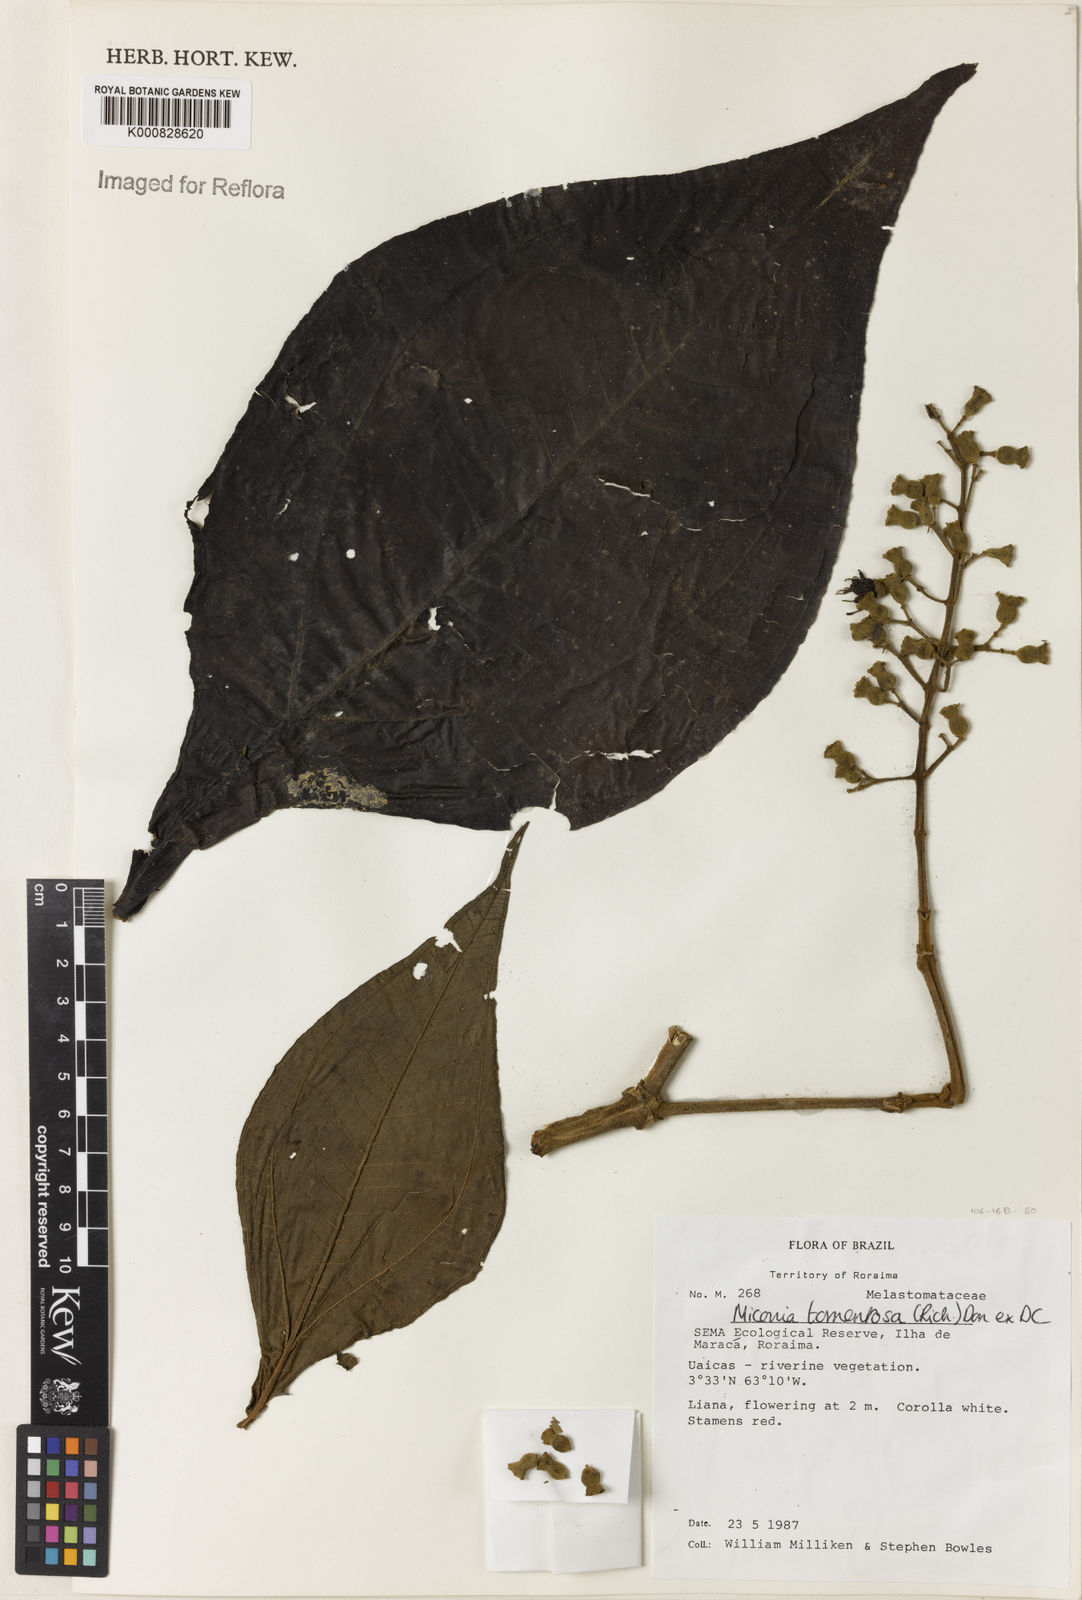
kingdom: Plantae
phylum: Tracheophyta
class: Magnoliopsida
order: Myrtales
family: Melastomataceae
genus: Miconia
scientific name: Miconia tomentosa
